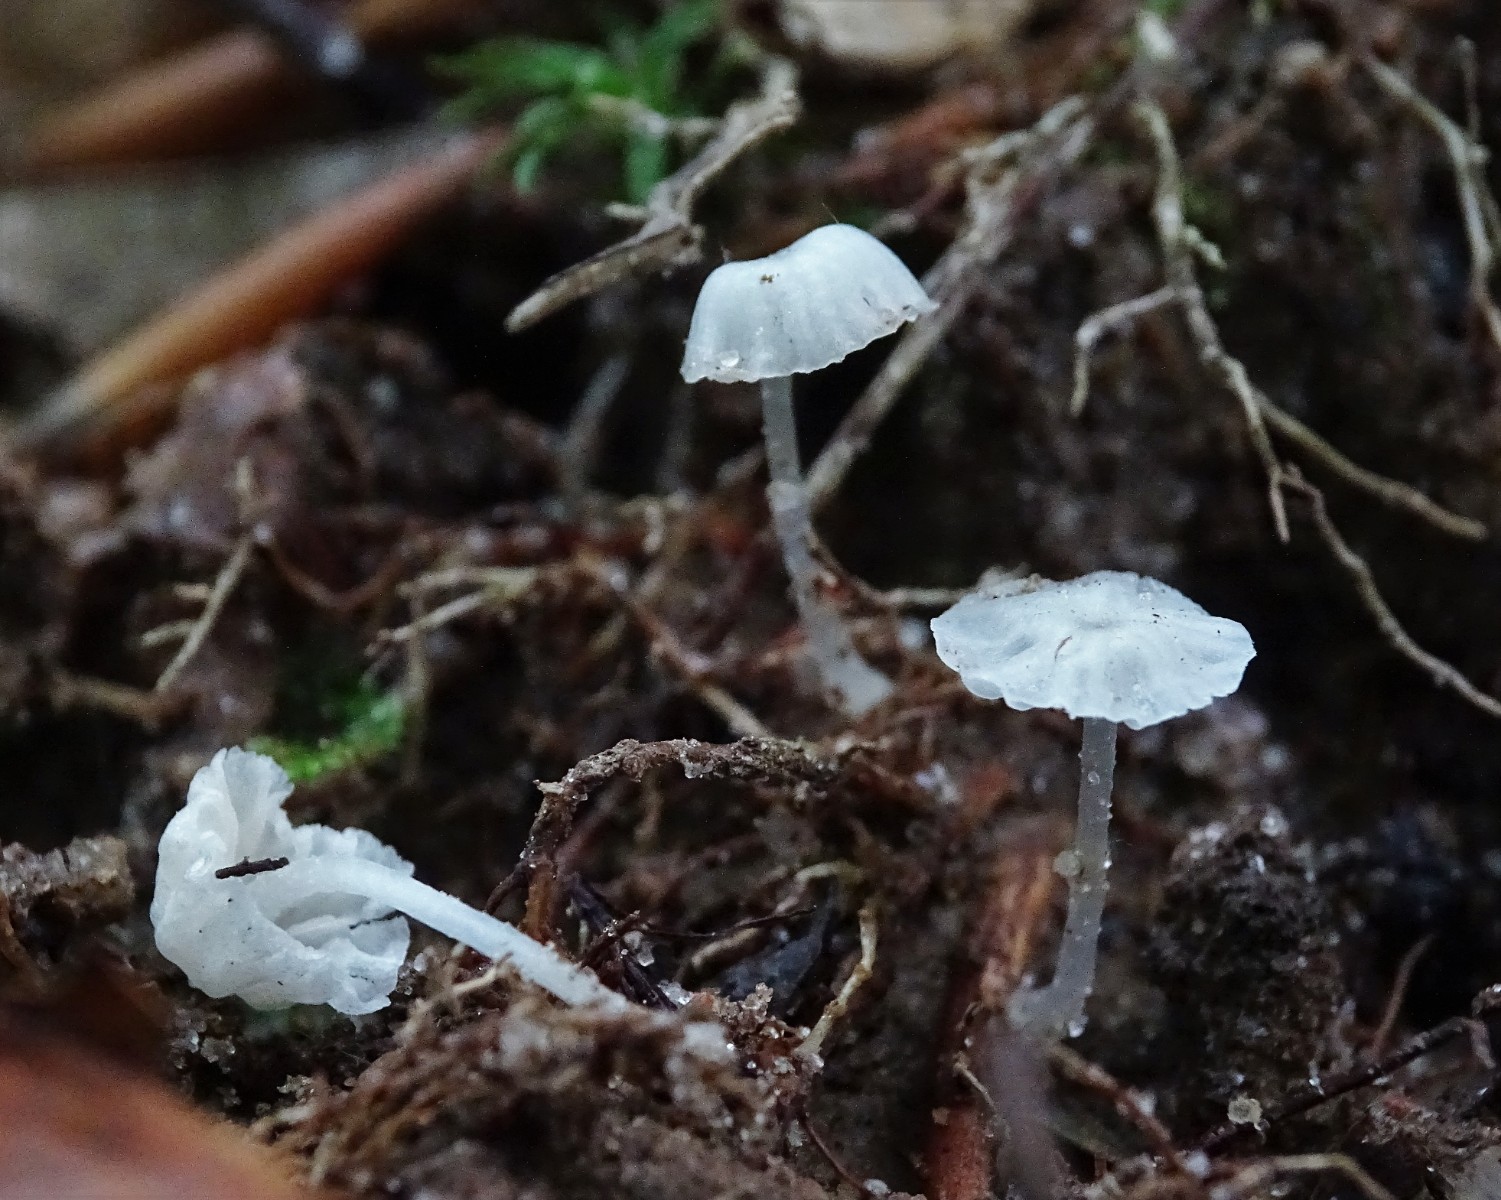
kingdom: Fungi
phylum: Basidiomycota
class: Agaricomycetes
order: Agaricales
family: Tricholomataceae
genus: Delicatula
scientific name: Delicatula integrella
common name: slørhuesvamp
